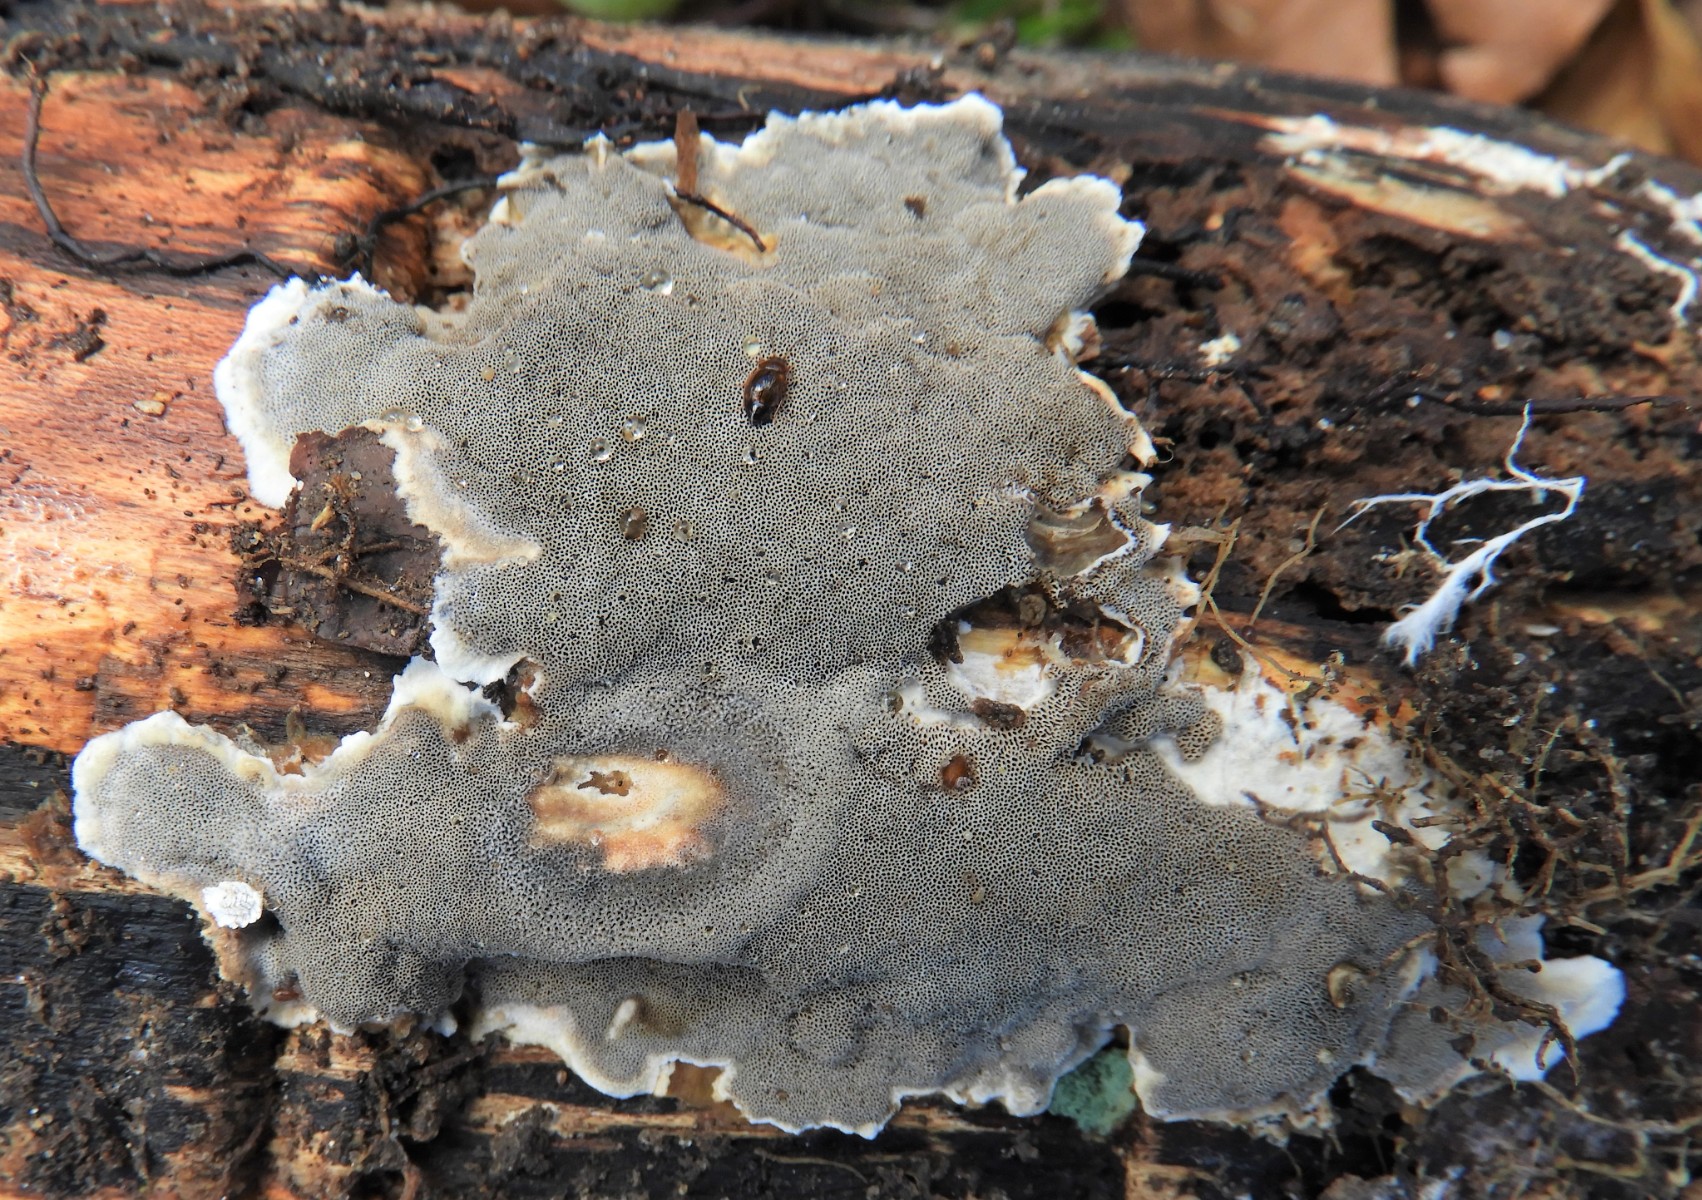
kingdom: Fungi
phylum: Basidiomycota
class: Agaricomycetes
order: Polyporales
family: Phanerochaetaceae
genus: Bjerkandera
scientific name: Bjerkandera adusta
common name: sveden sodporesvamp
